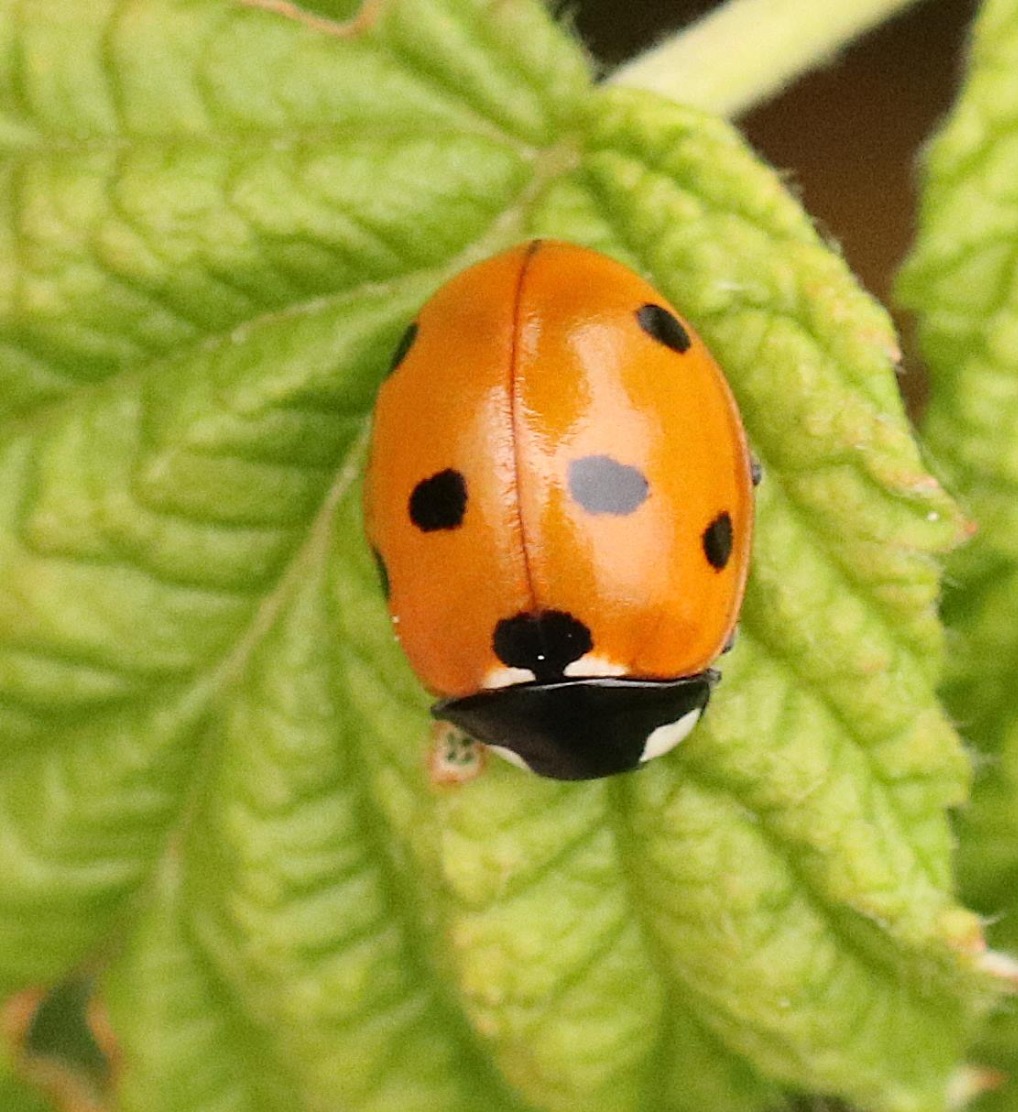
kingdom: Animalia
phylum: Arthropoda
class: Insecta
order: Coleoptera
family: Coccinellidae
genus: Coccinella
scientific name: Coccinella septempunctata
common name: Syvplettet mariehøne
